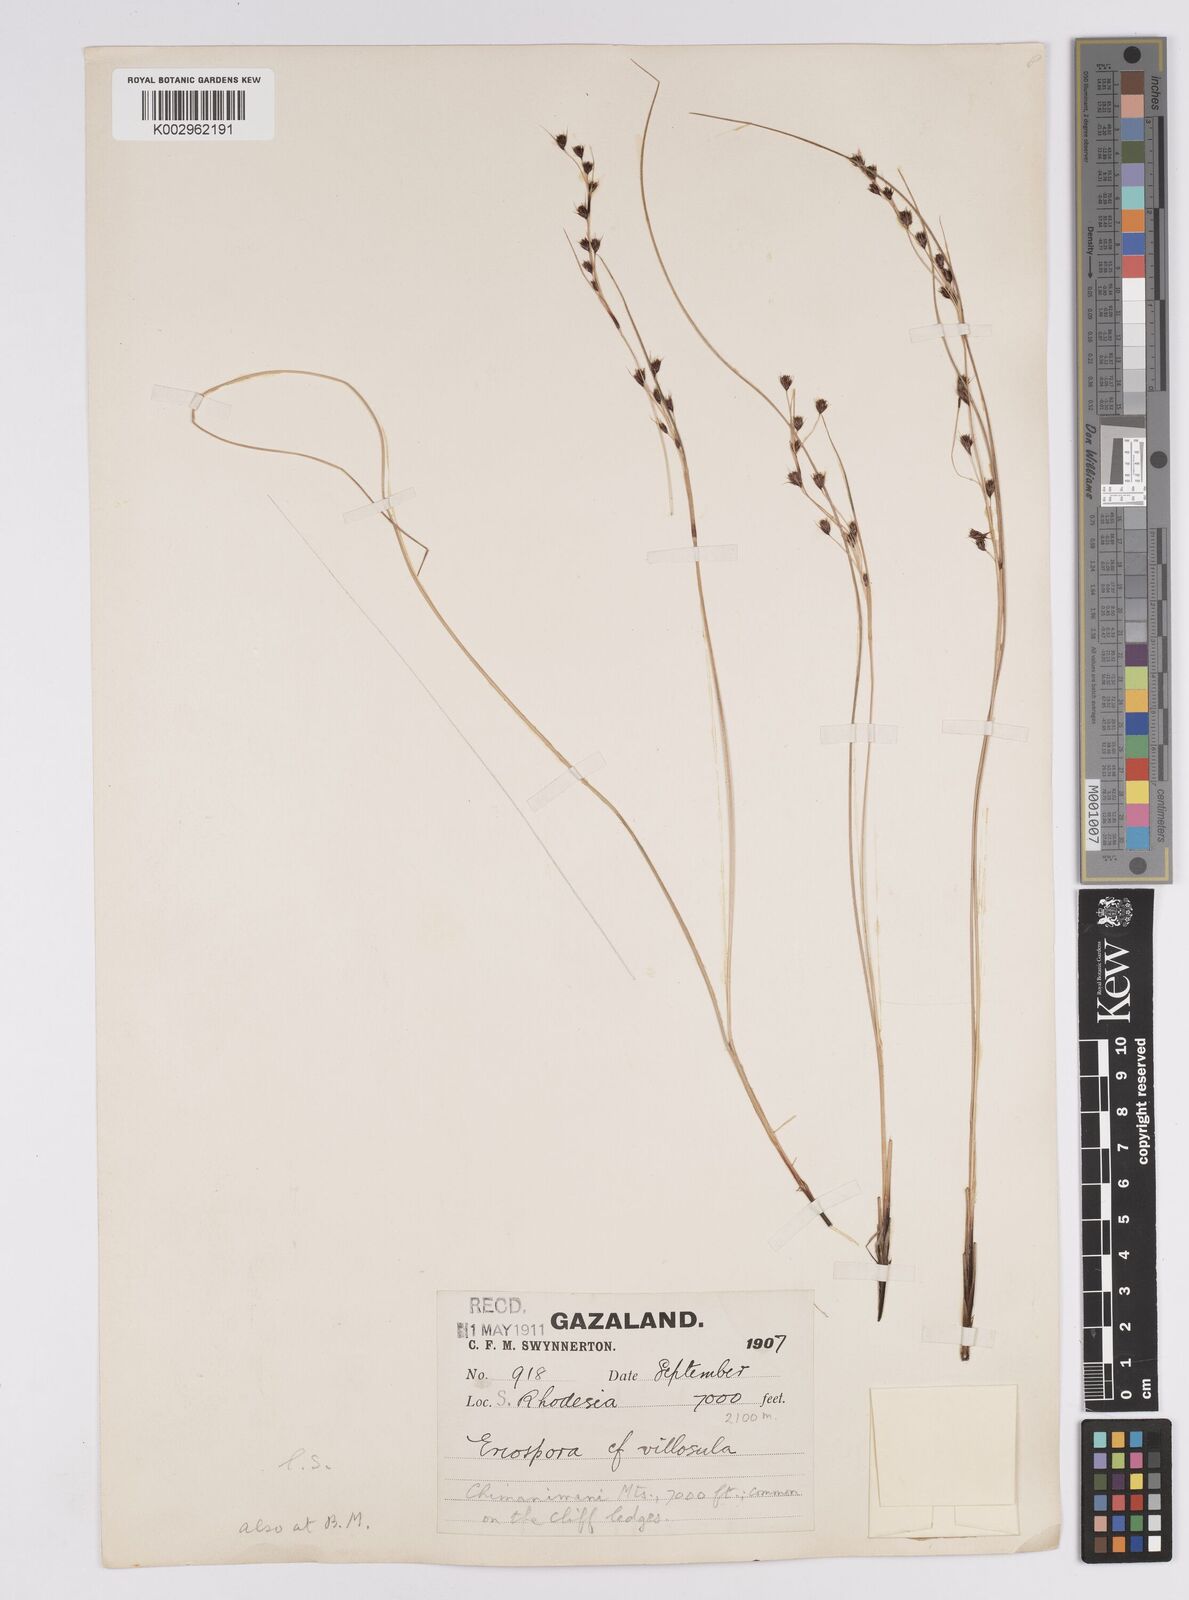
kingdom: Plantae
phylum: Tracheophyta
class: Liliopsida
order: Poales
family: Cyperaceae
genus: Coleochloa
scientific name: Coleochloa setifera
